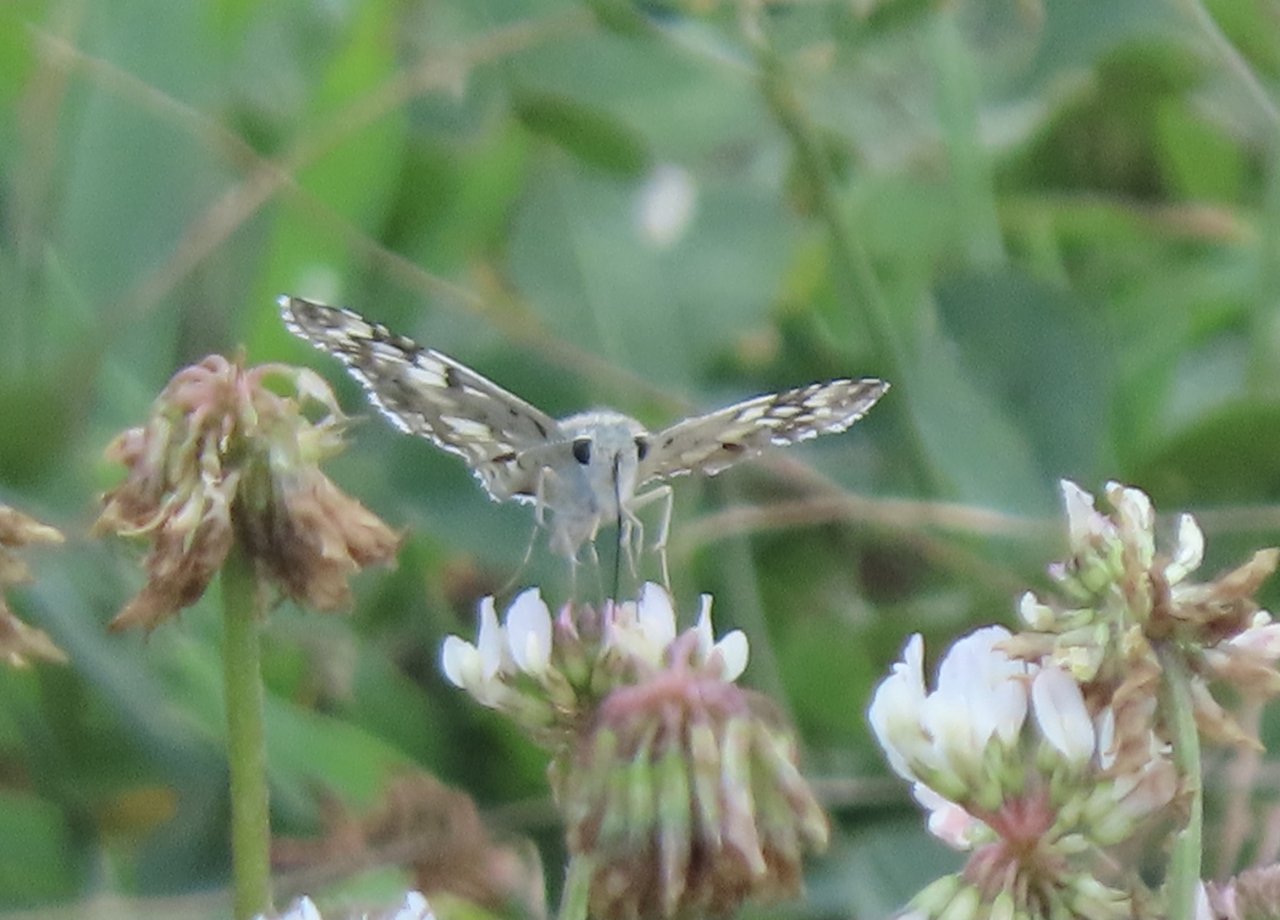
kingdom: Animalia
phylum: Arthropoda
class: Insecta
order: Lepidoptera
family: Hesperiidae
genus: Pyrgus
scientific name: Pyrgus communis
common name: Common Checkered-Skipper
